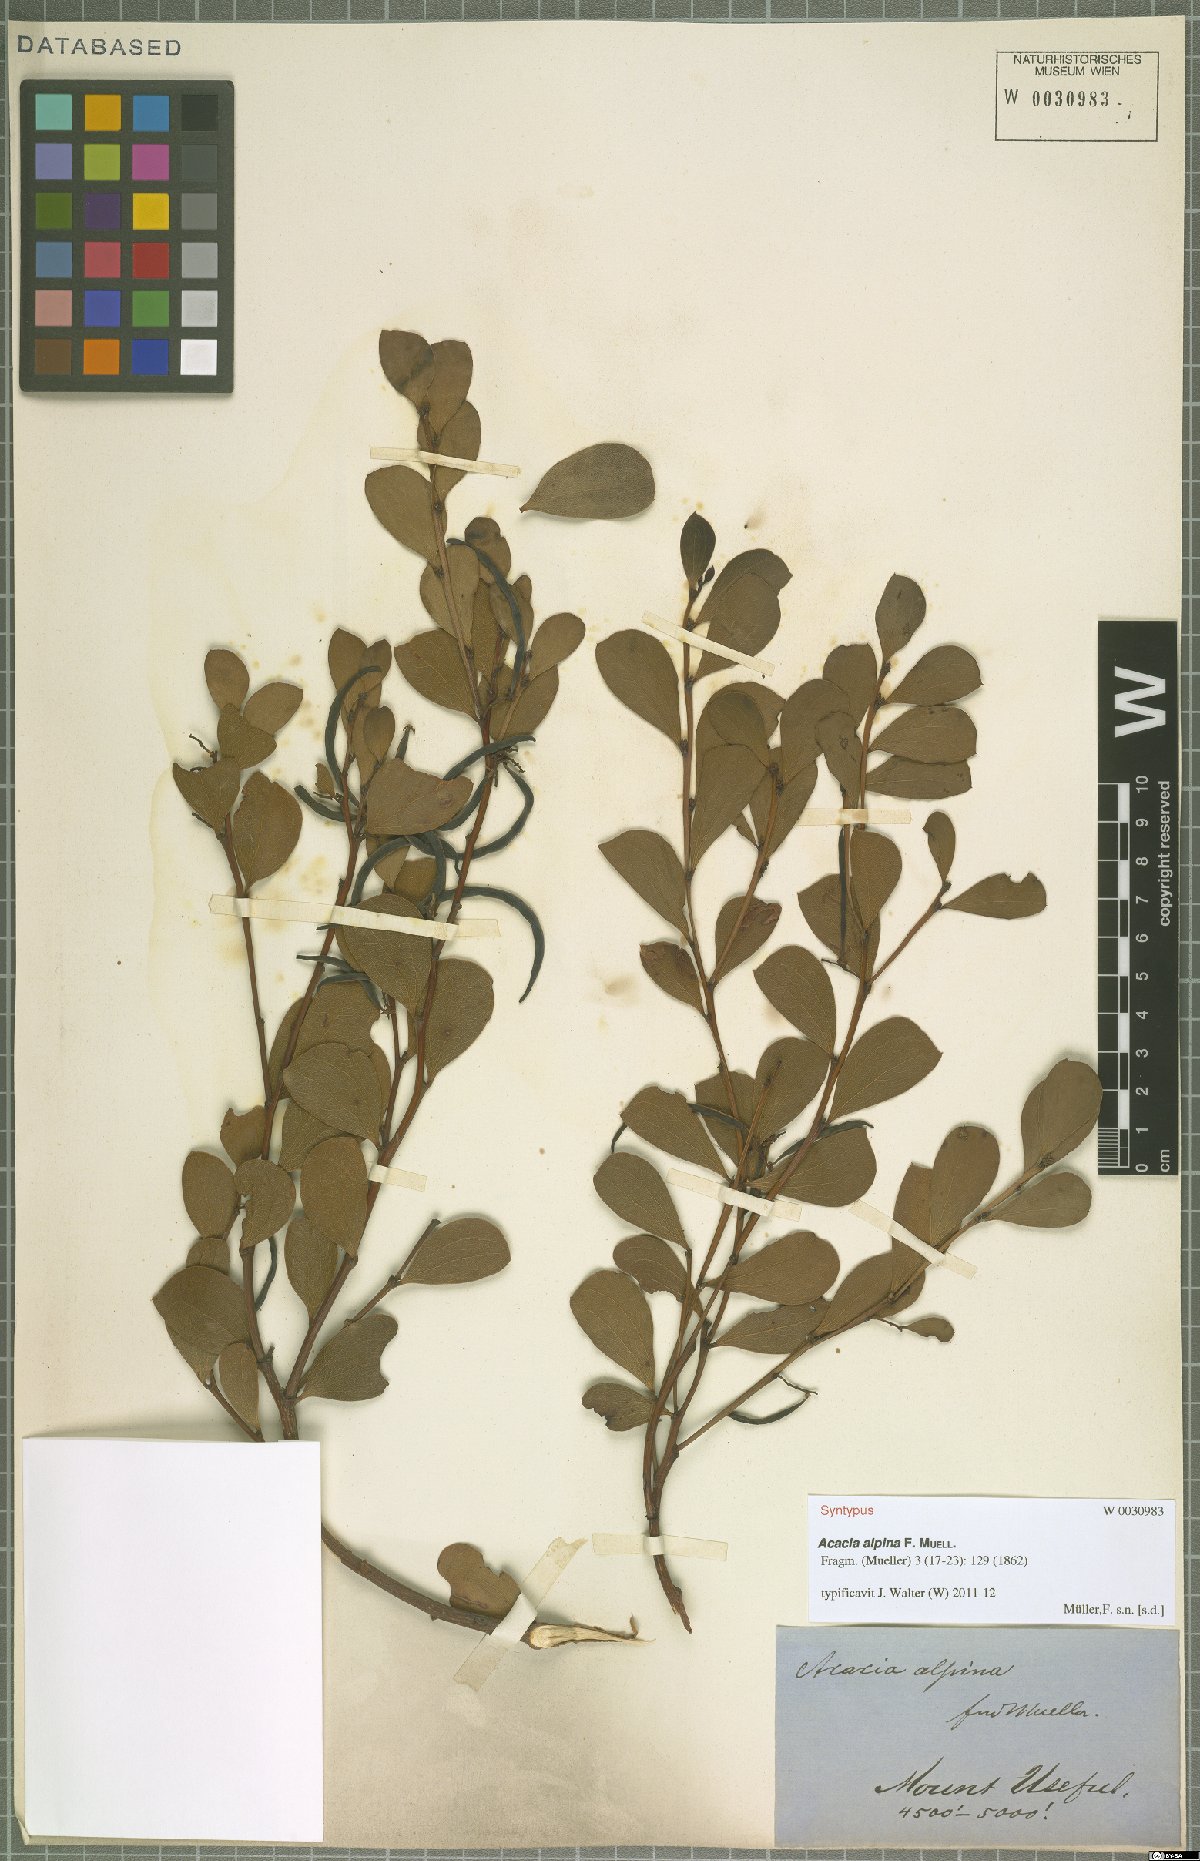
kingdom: Plantae
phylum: Tracheophyta
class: Magnoliopsida
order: Fabales
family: Fabaceae
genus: Acacia
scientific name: Acacia alpina
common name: Alpine wattle
